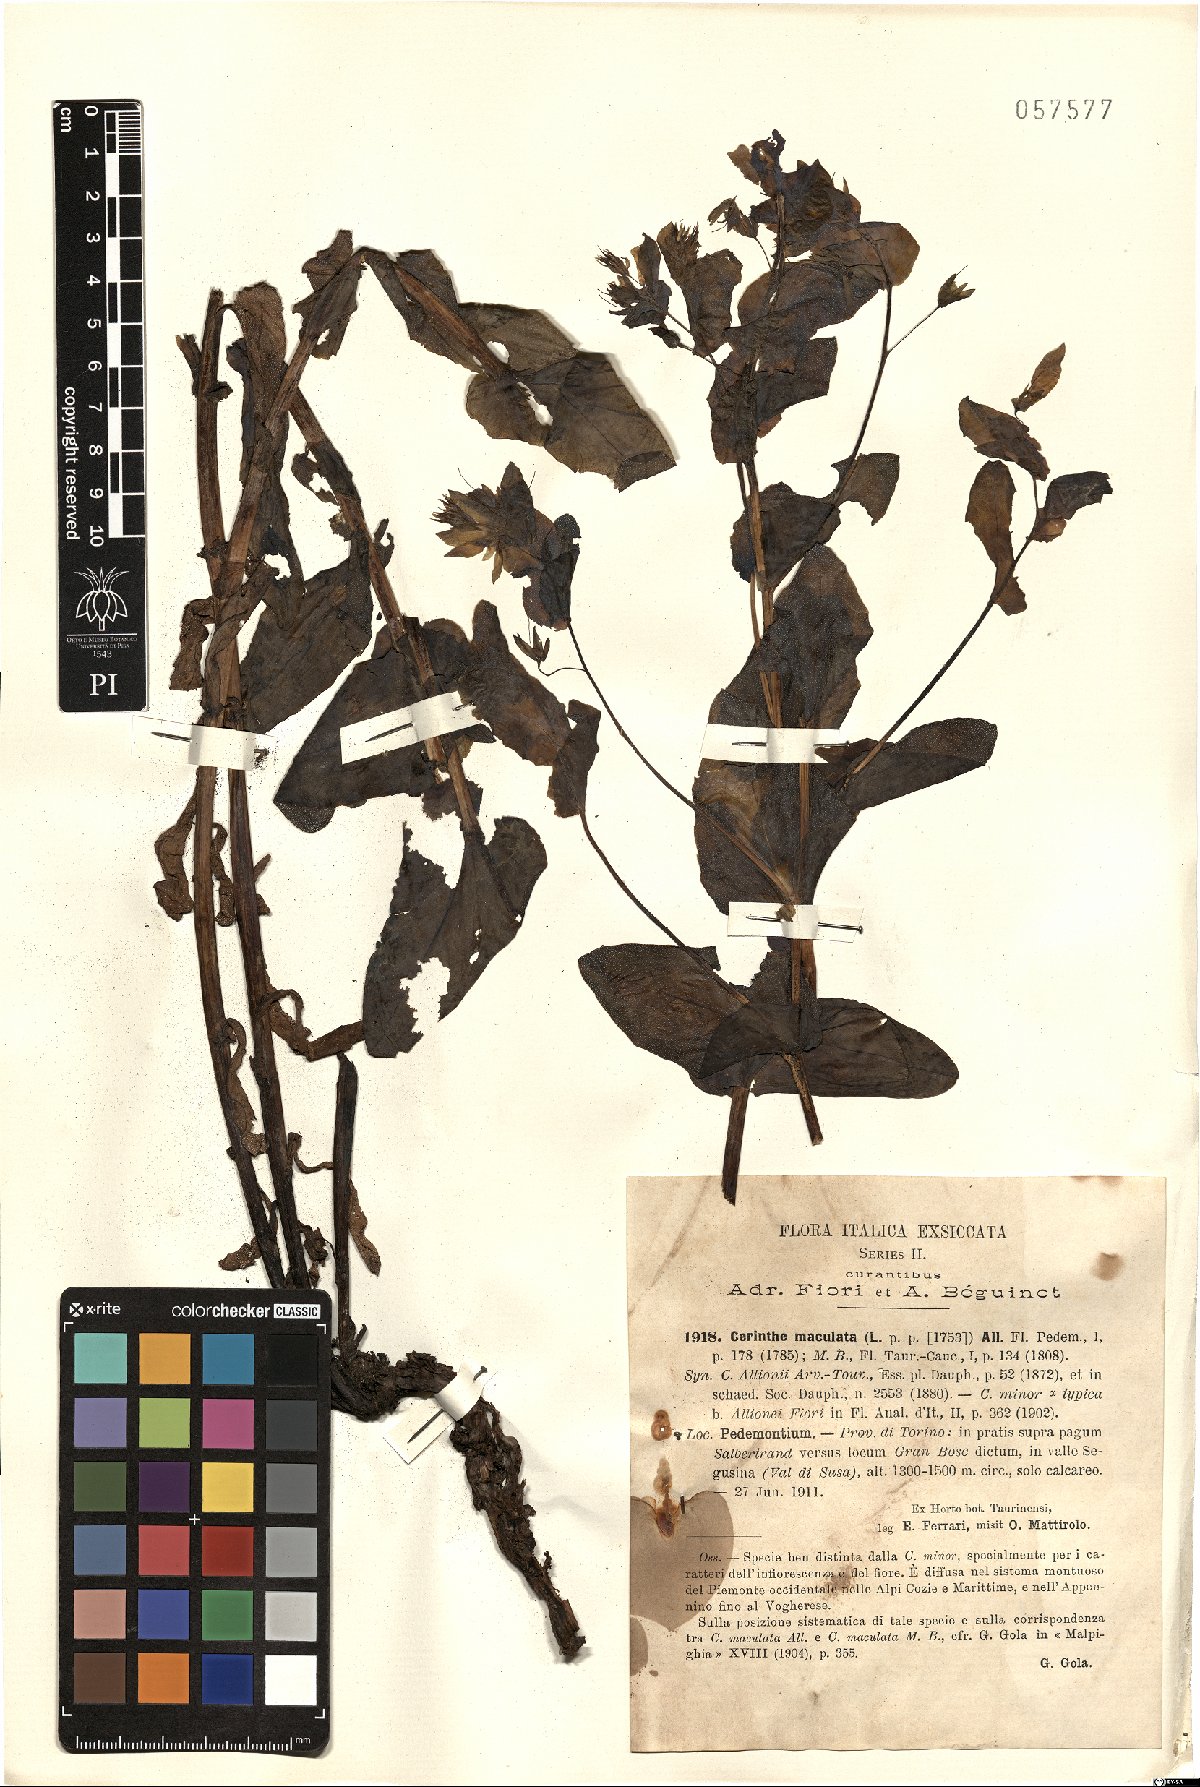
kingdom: Plantae
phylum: Tracheophyta
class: Magnoliopsida
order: Boraginales
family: Boraginaceae
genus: Cerinthe
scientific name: Cerinthe minor
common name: Lesser honeywort
